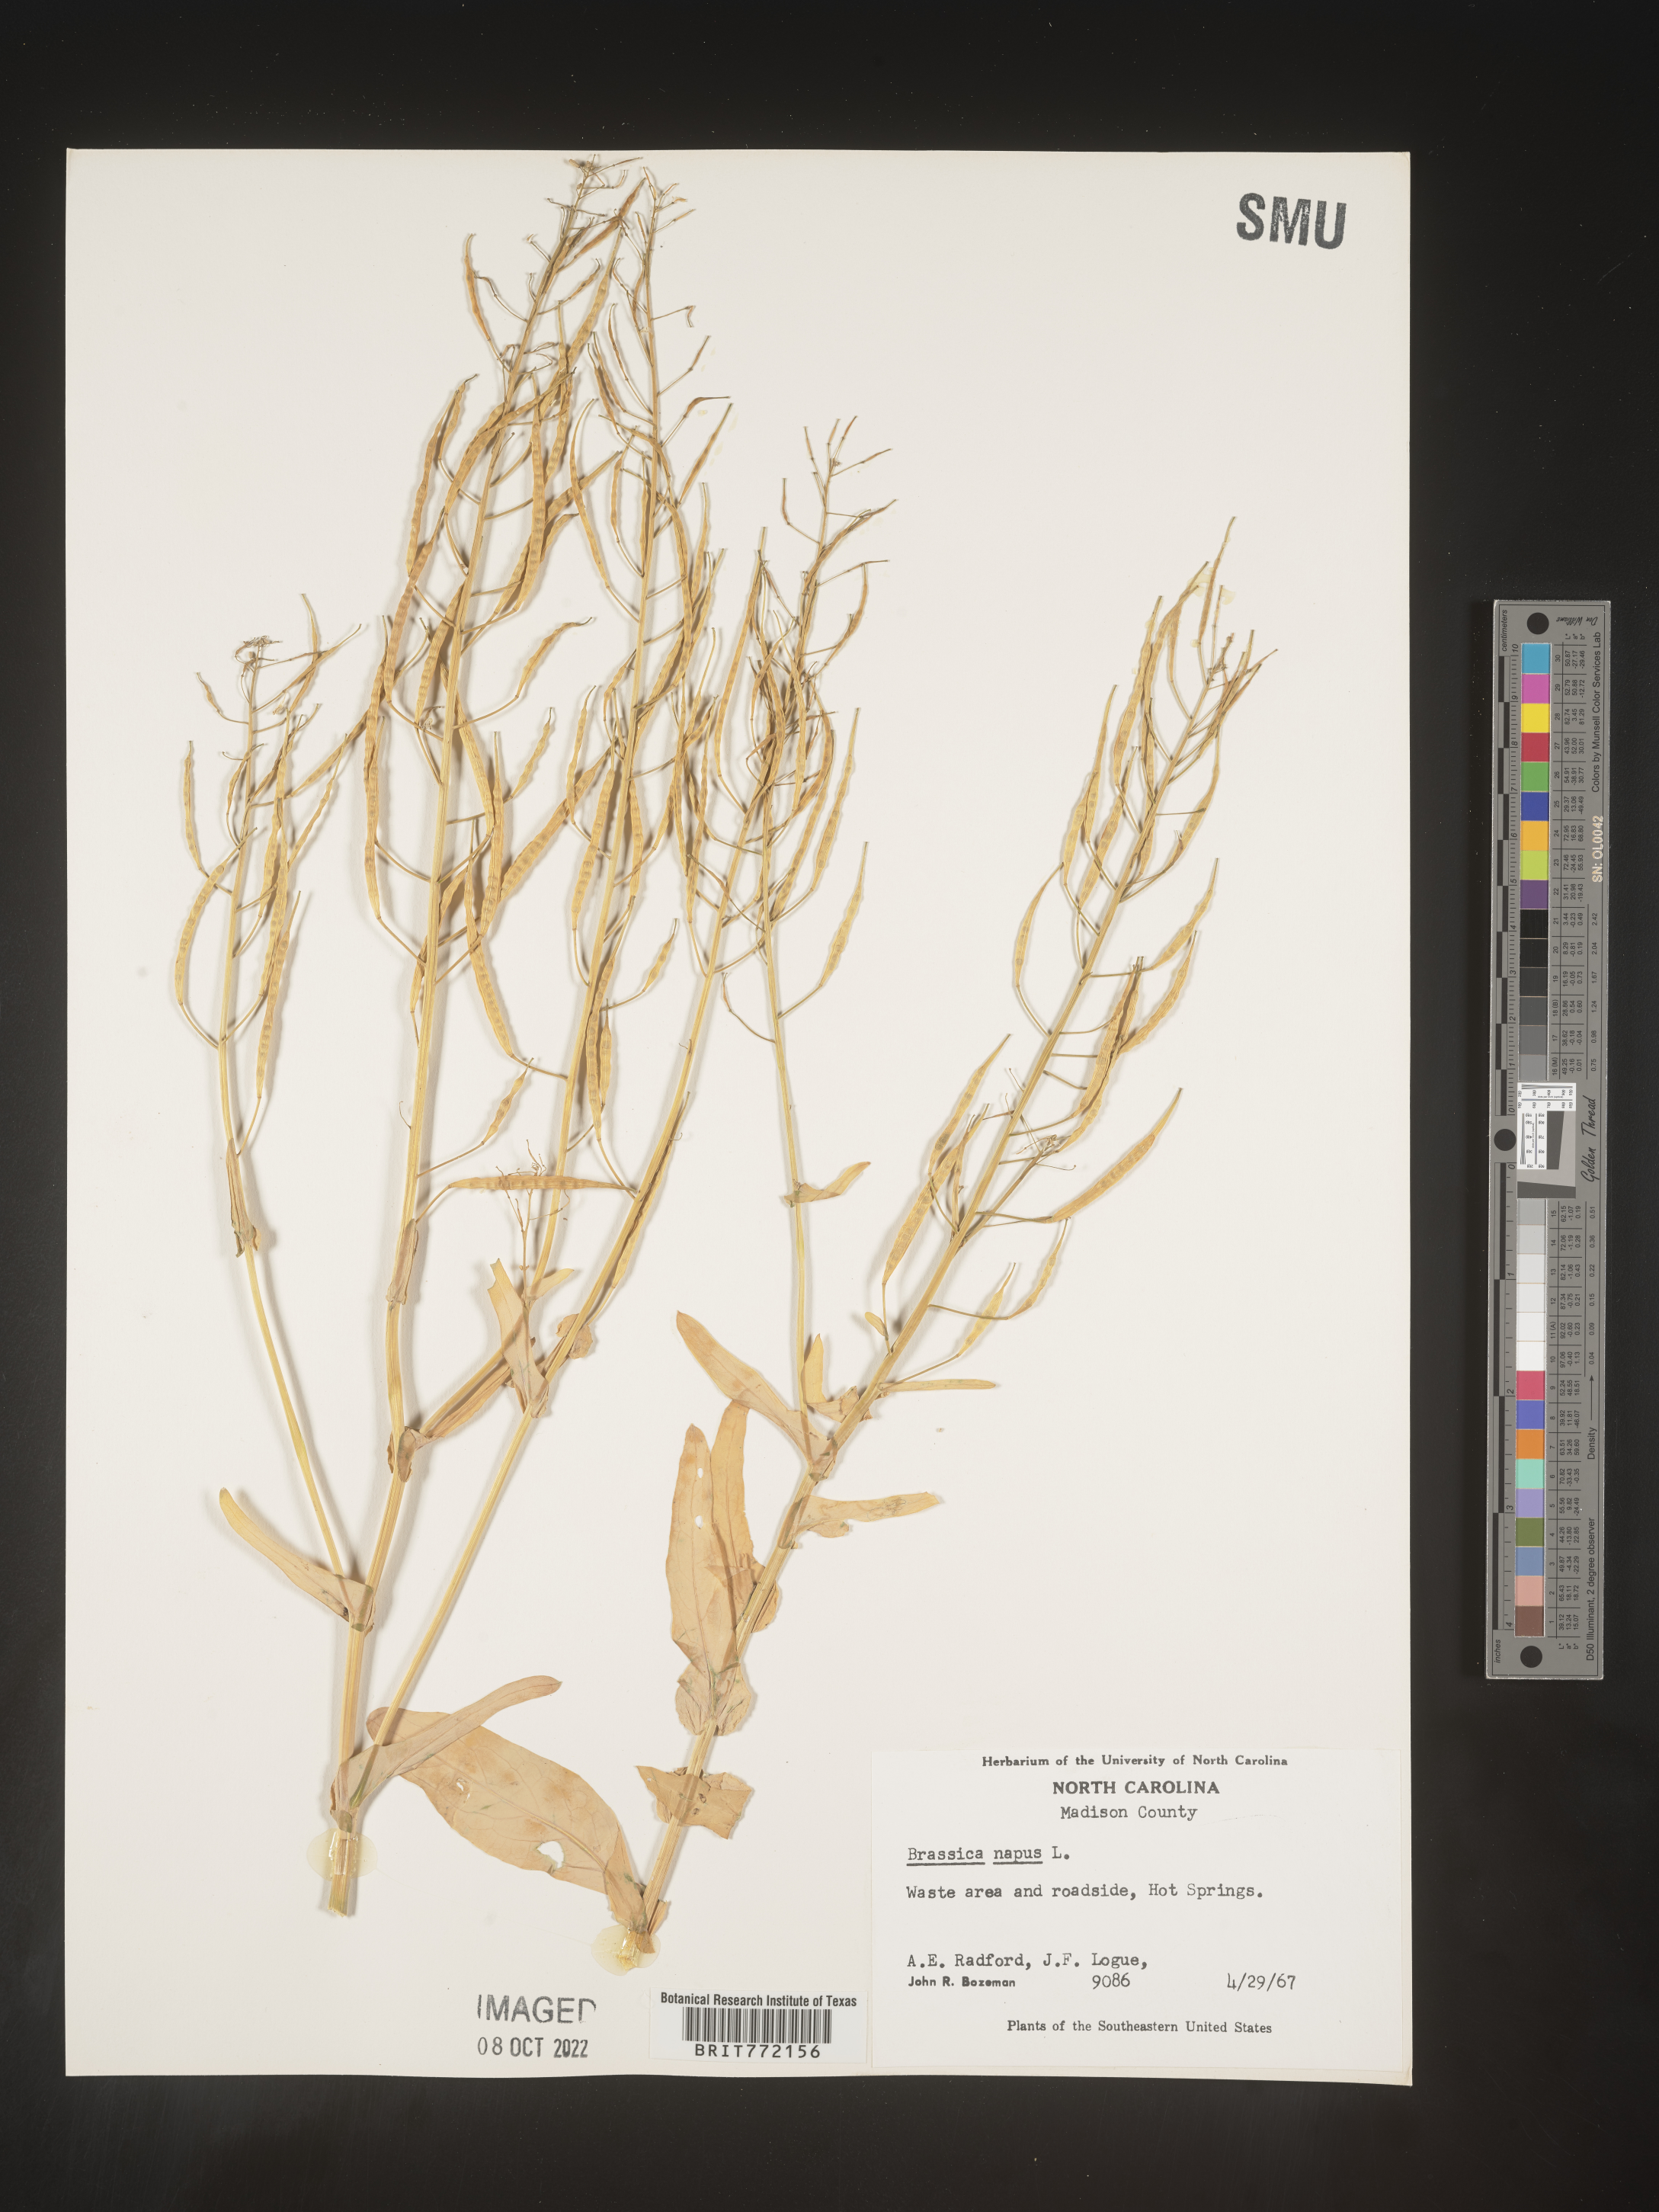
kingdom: Plantae
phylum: Tracheophyta
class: Magnoliopsida
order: Brassicales
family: Brassicaceae
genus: Brassica
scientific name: Brassica rapa
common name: Field mustard
